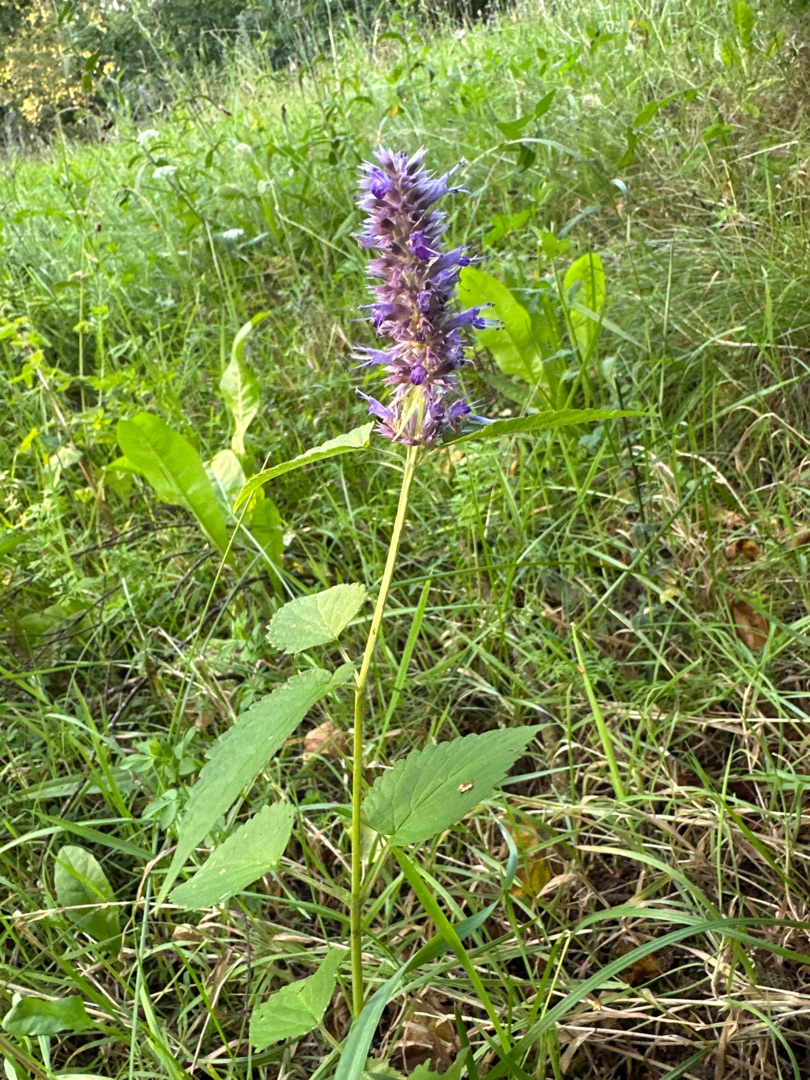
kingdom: Plantae
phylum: Tracheophyta
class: Magnoliopsida
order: Lamiales
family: Lamiaceae
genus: Agastache
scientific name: Agastache rugosa
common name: Koreansk anisisop
